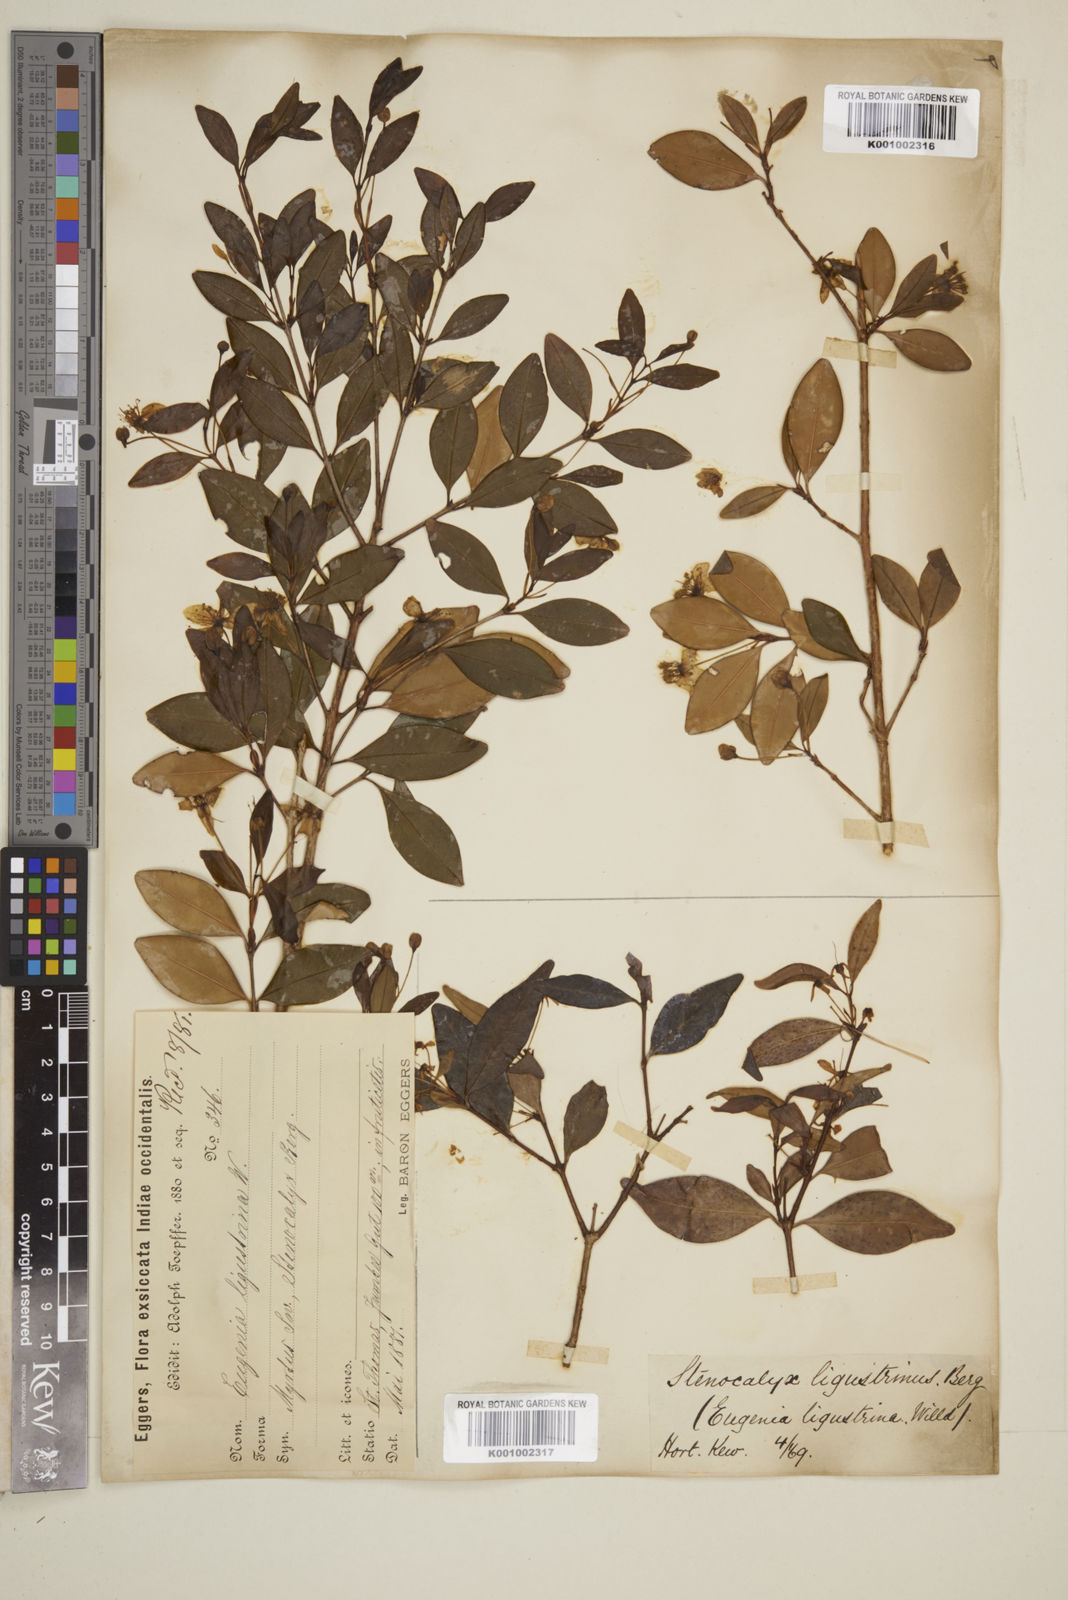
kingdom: Plantae
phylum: Tracheophyta
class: Magnoliopsida
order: Myrtales
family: Myrtaceae
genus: Eugenia
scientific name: Eugenia ligustrina
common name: Privet stopper
